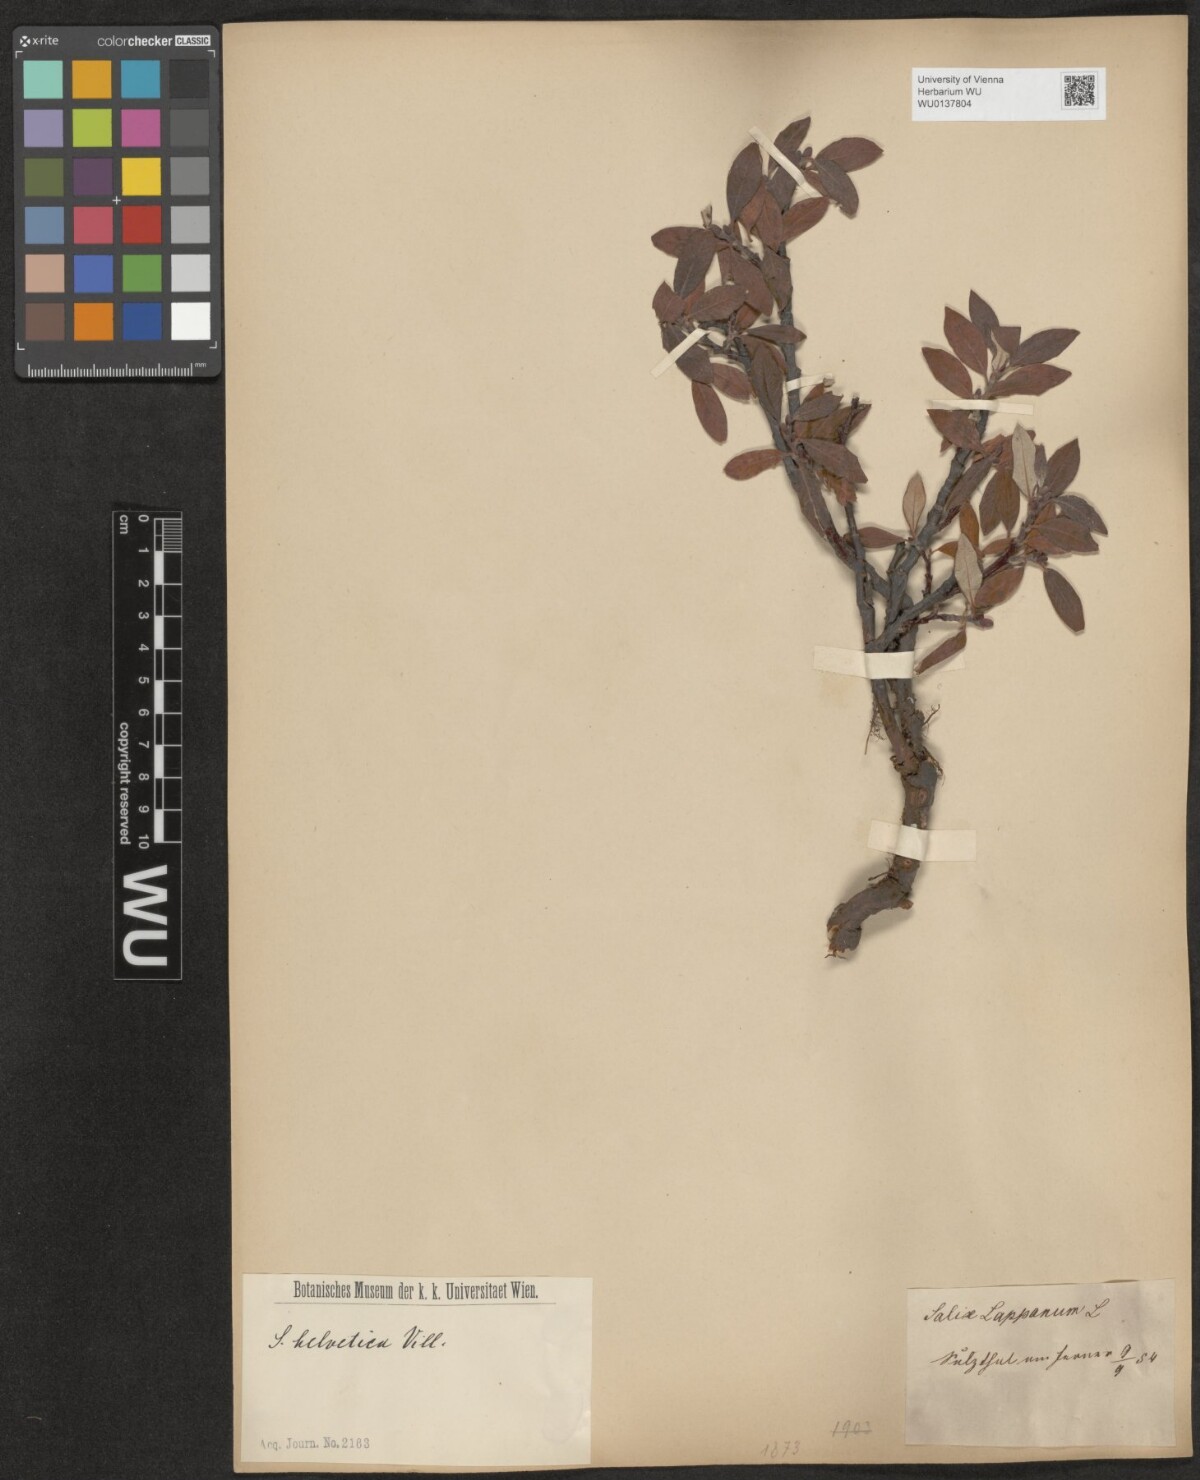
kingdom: Plantae
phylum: Tracheophyta
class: Magnoliopsida
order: Malpighiales
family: Salicaceae
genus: Salix
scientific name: Salix helvetica
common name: Swiss willow
